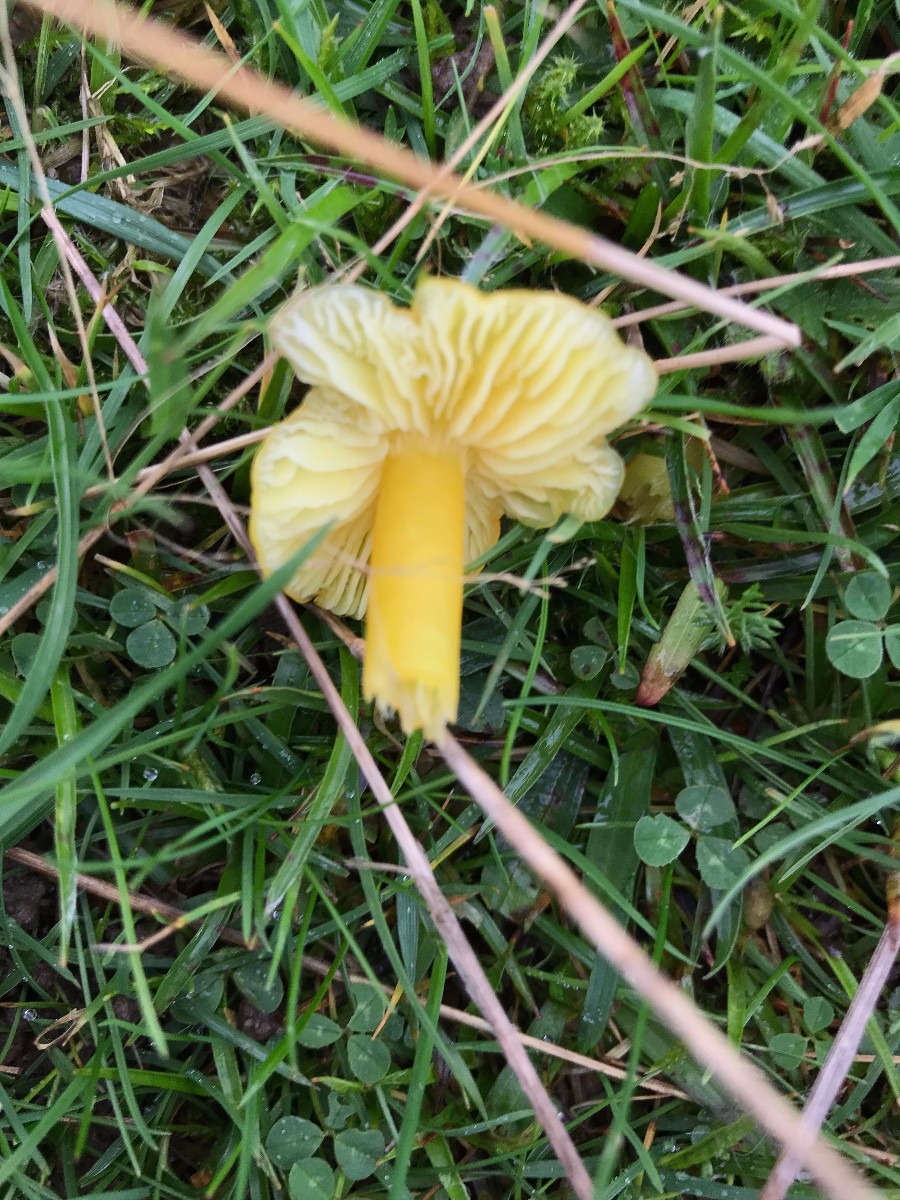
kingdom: Fungi
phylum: Basidiomycota
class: Agaricomycetes
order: Agaricales
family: Hygrophoraceae
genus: Hygrocybe
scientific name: Hygrocybe chlorophana
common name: gul vokshat
